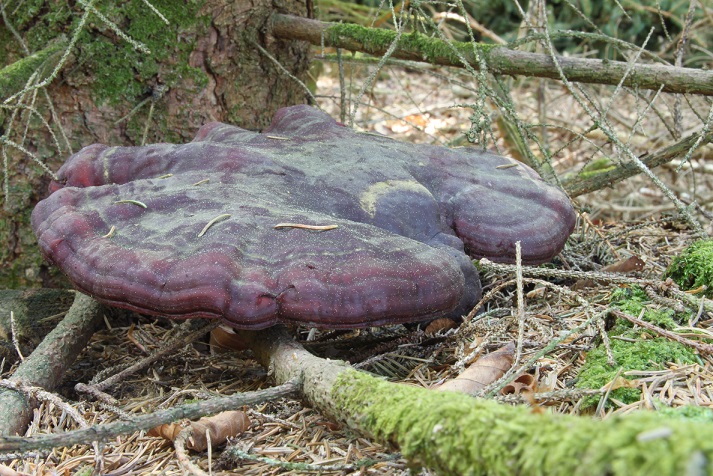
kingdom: Fungi
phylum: Basidiomycota
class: Agaricomycetes
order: Polyporales
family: Polyporaceae
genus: Ganoderma
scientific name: Ganoderma lucidum
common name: skinnende lakporesvamp
